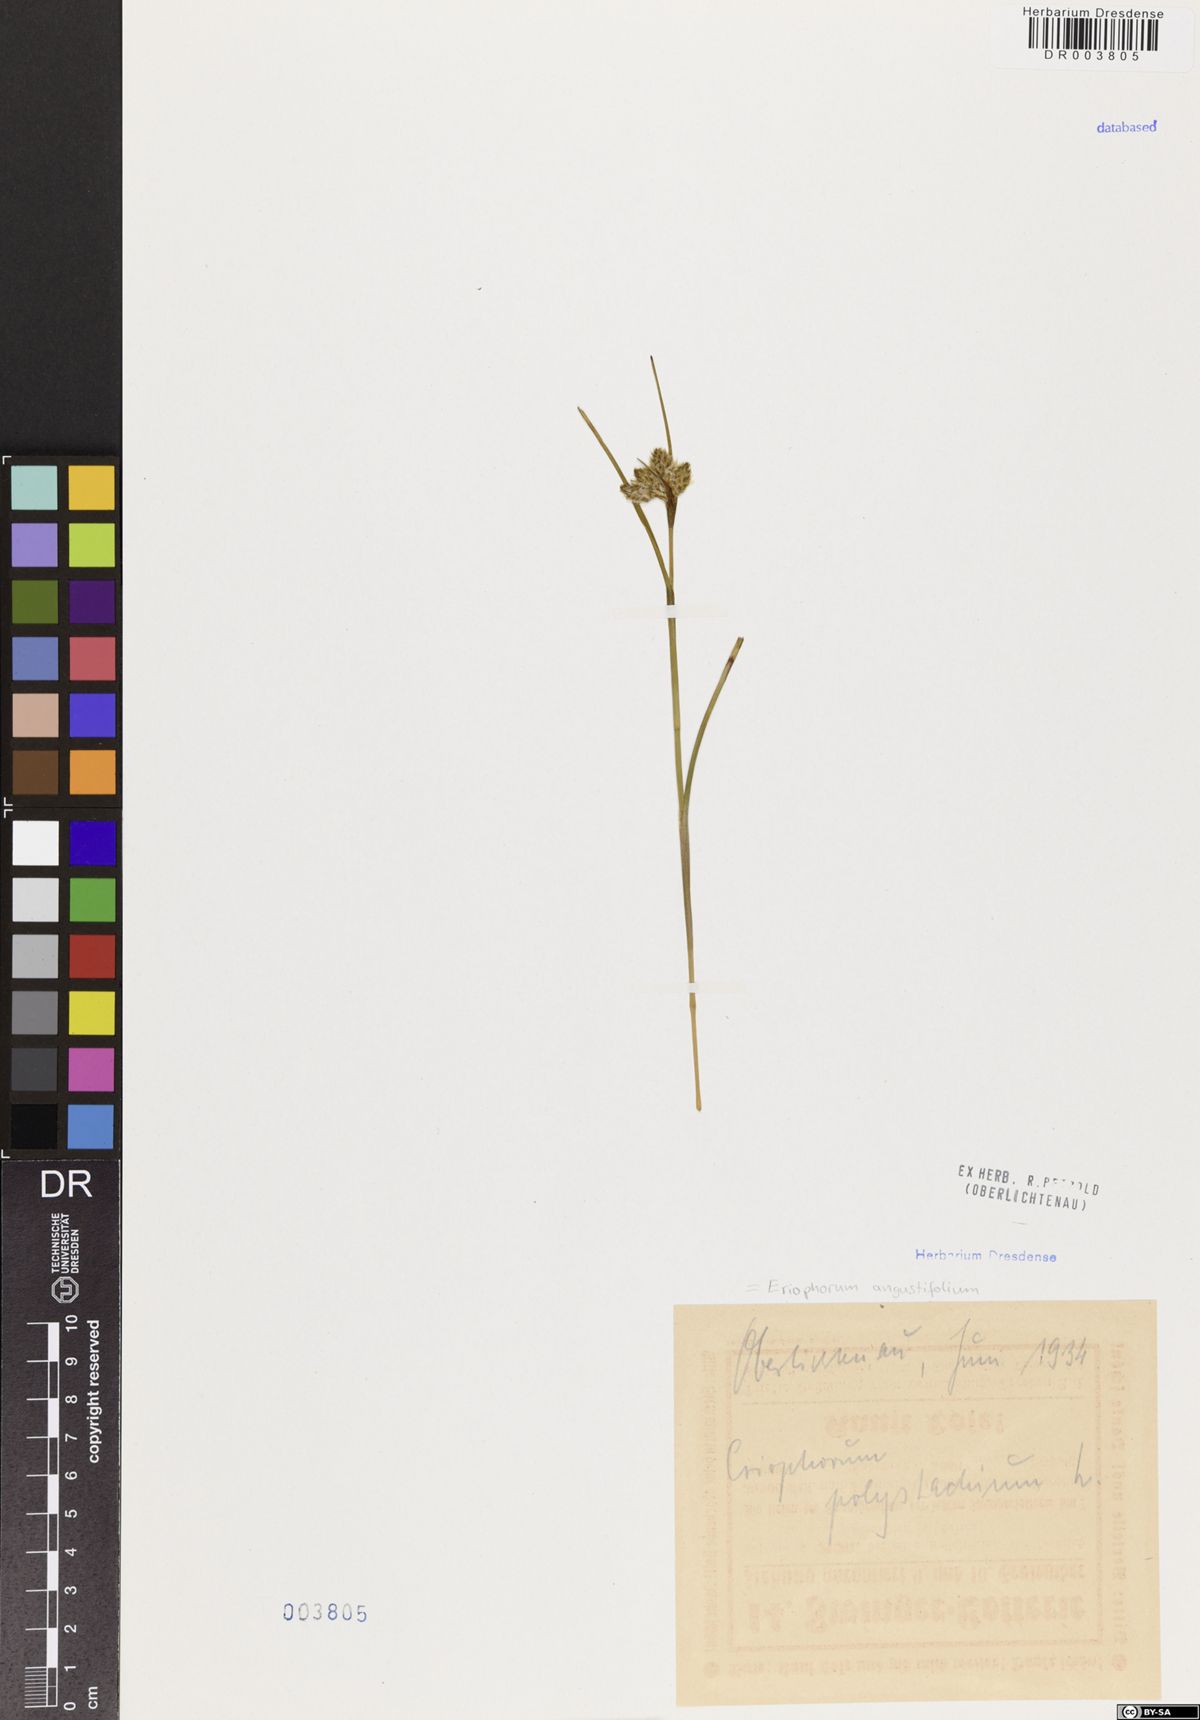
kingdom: Plantae
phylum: Tracheophyta
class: Liliopsida
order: Poales
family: Cyperaceae
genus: Eriophorum
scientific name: Eriophorum angustifolium
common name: Common cottongrass
